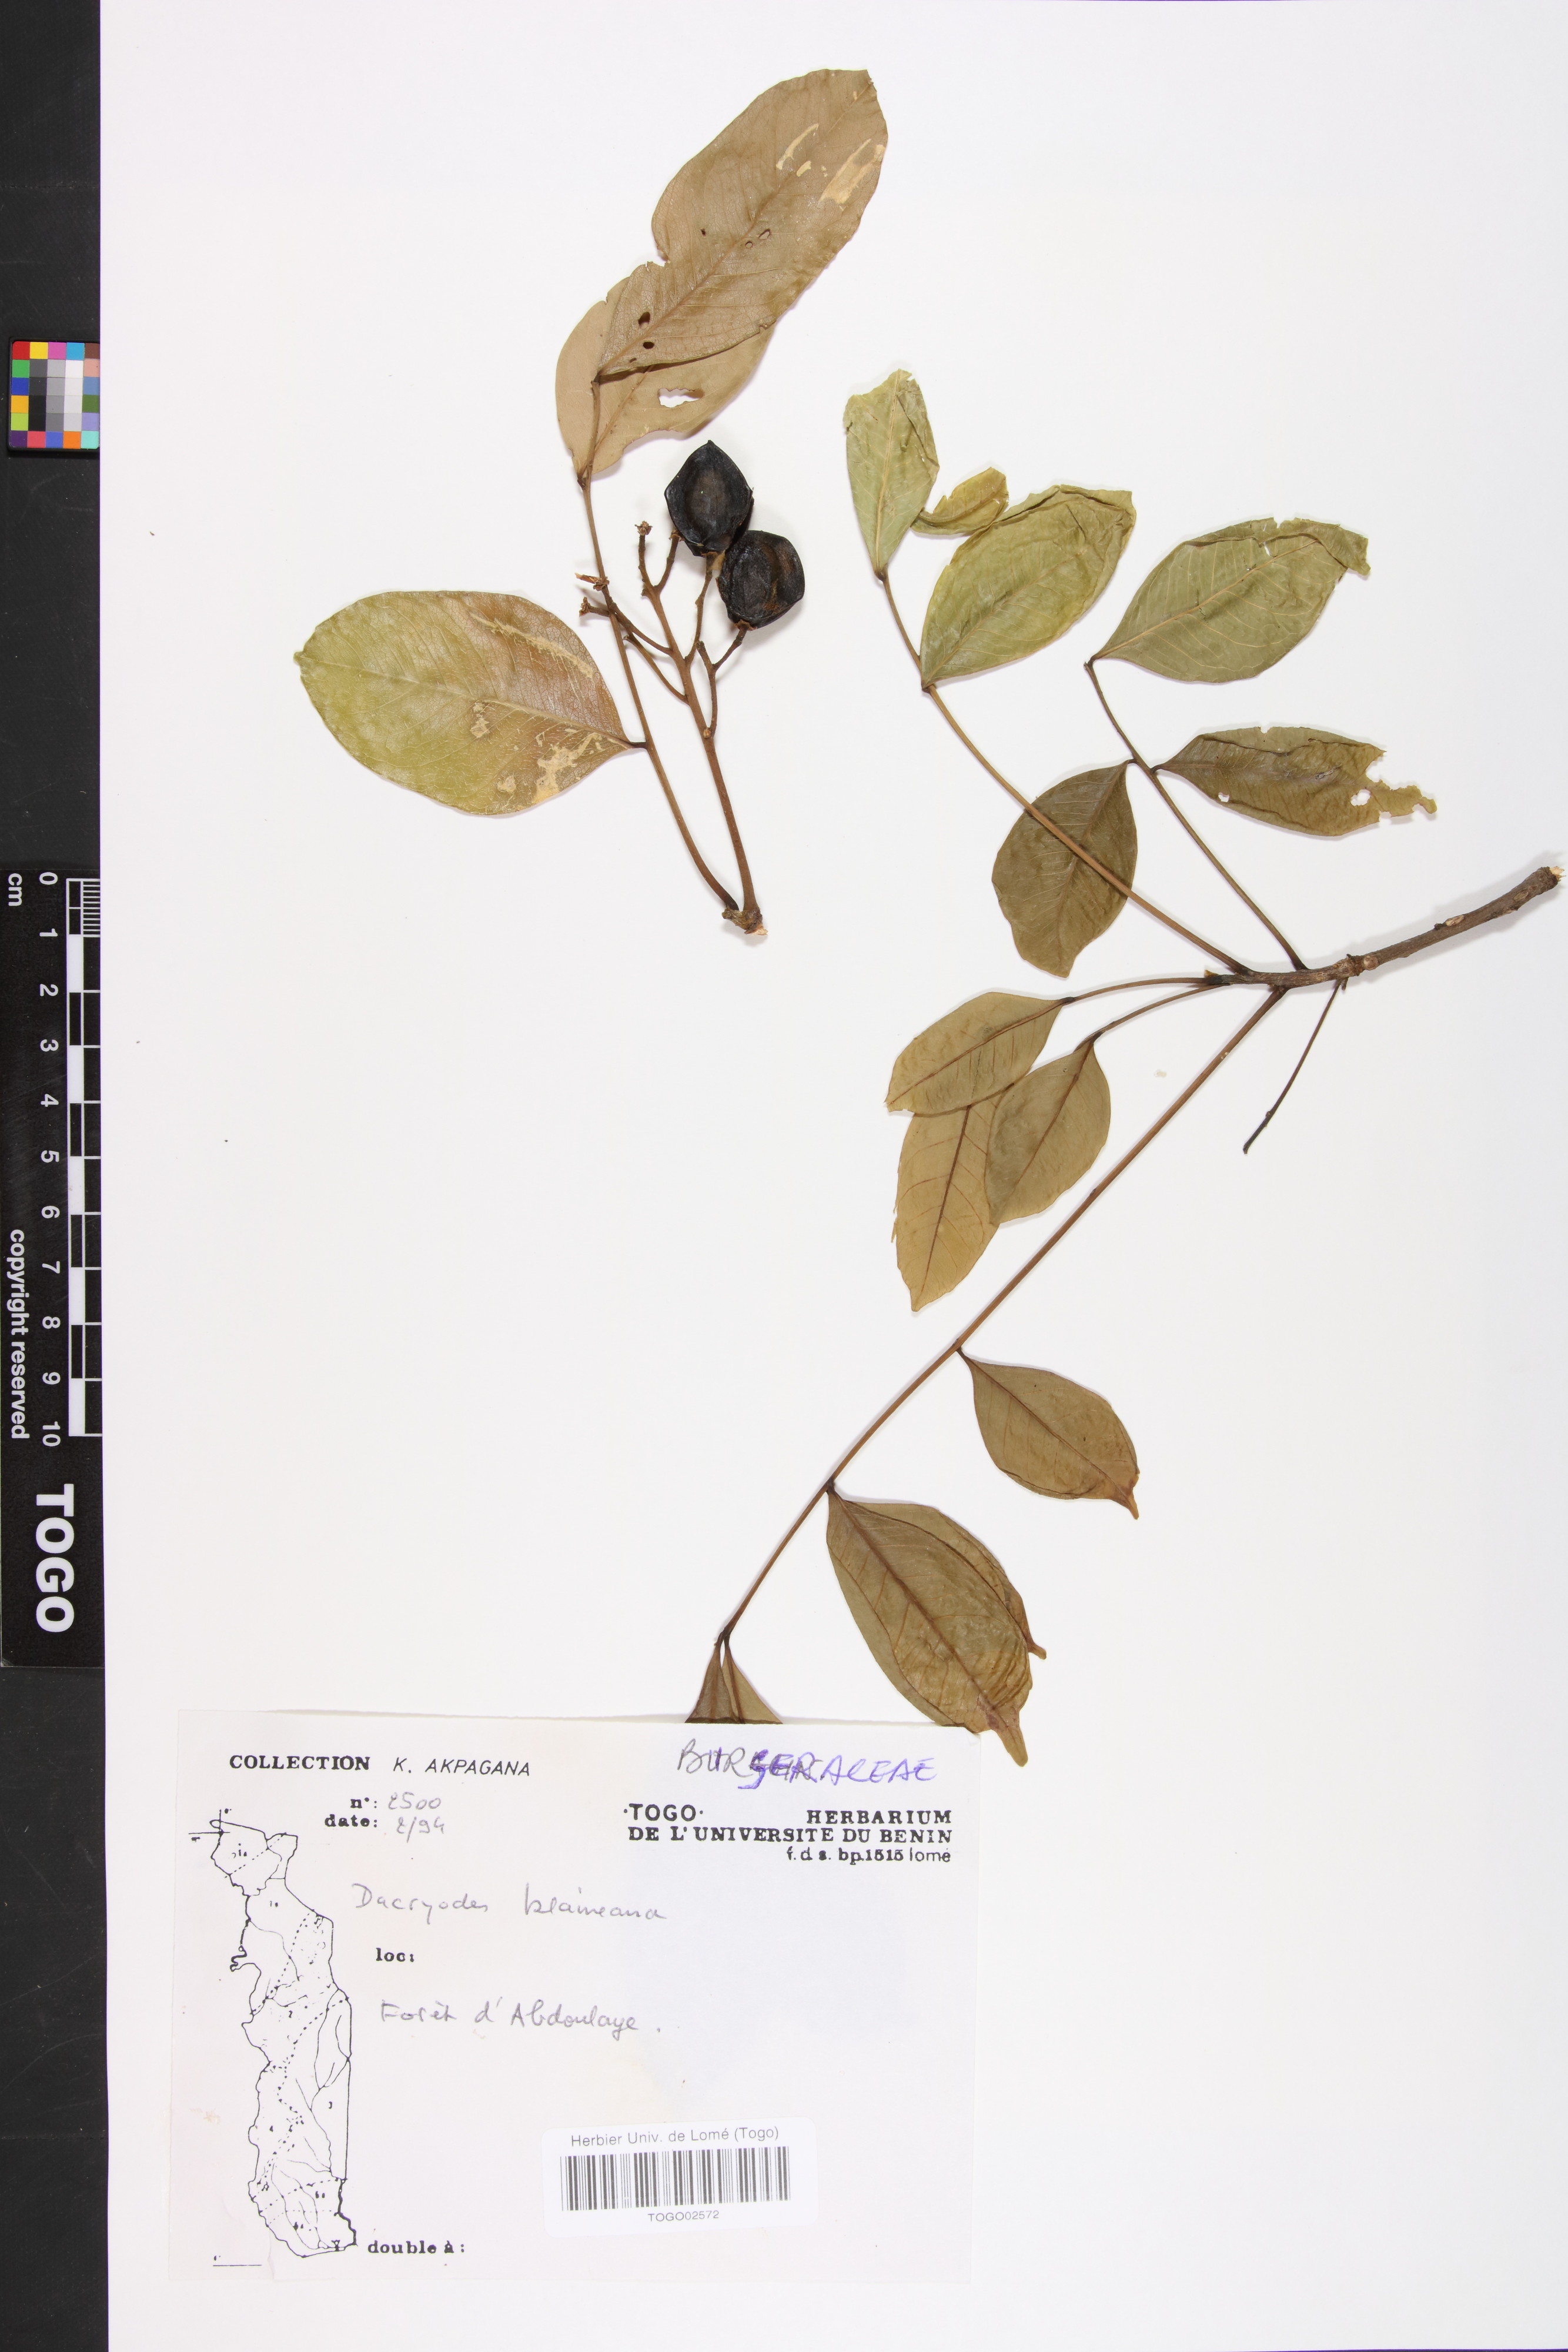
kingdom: Plantae
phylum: Tracheophyta
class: Magnoliopsida
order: Sapindales
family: Burseraceae
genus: Pachylobus
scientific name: Pachylobus klaineana
